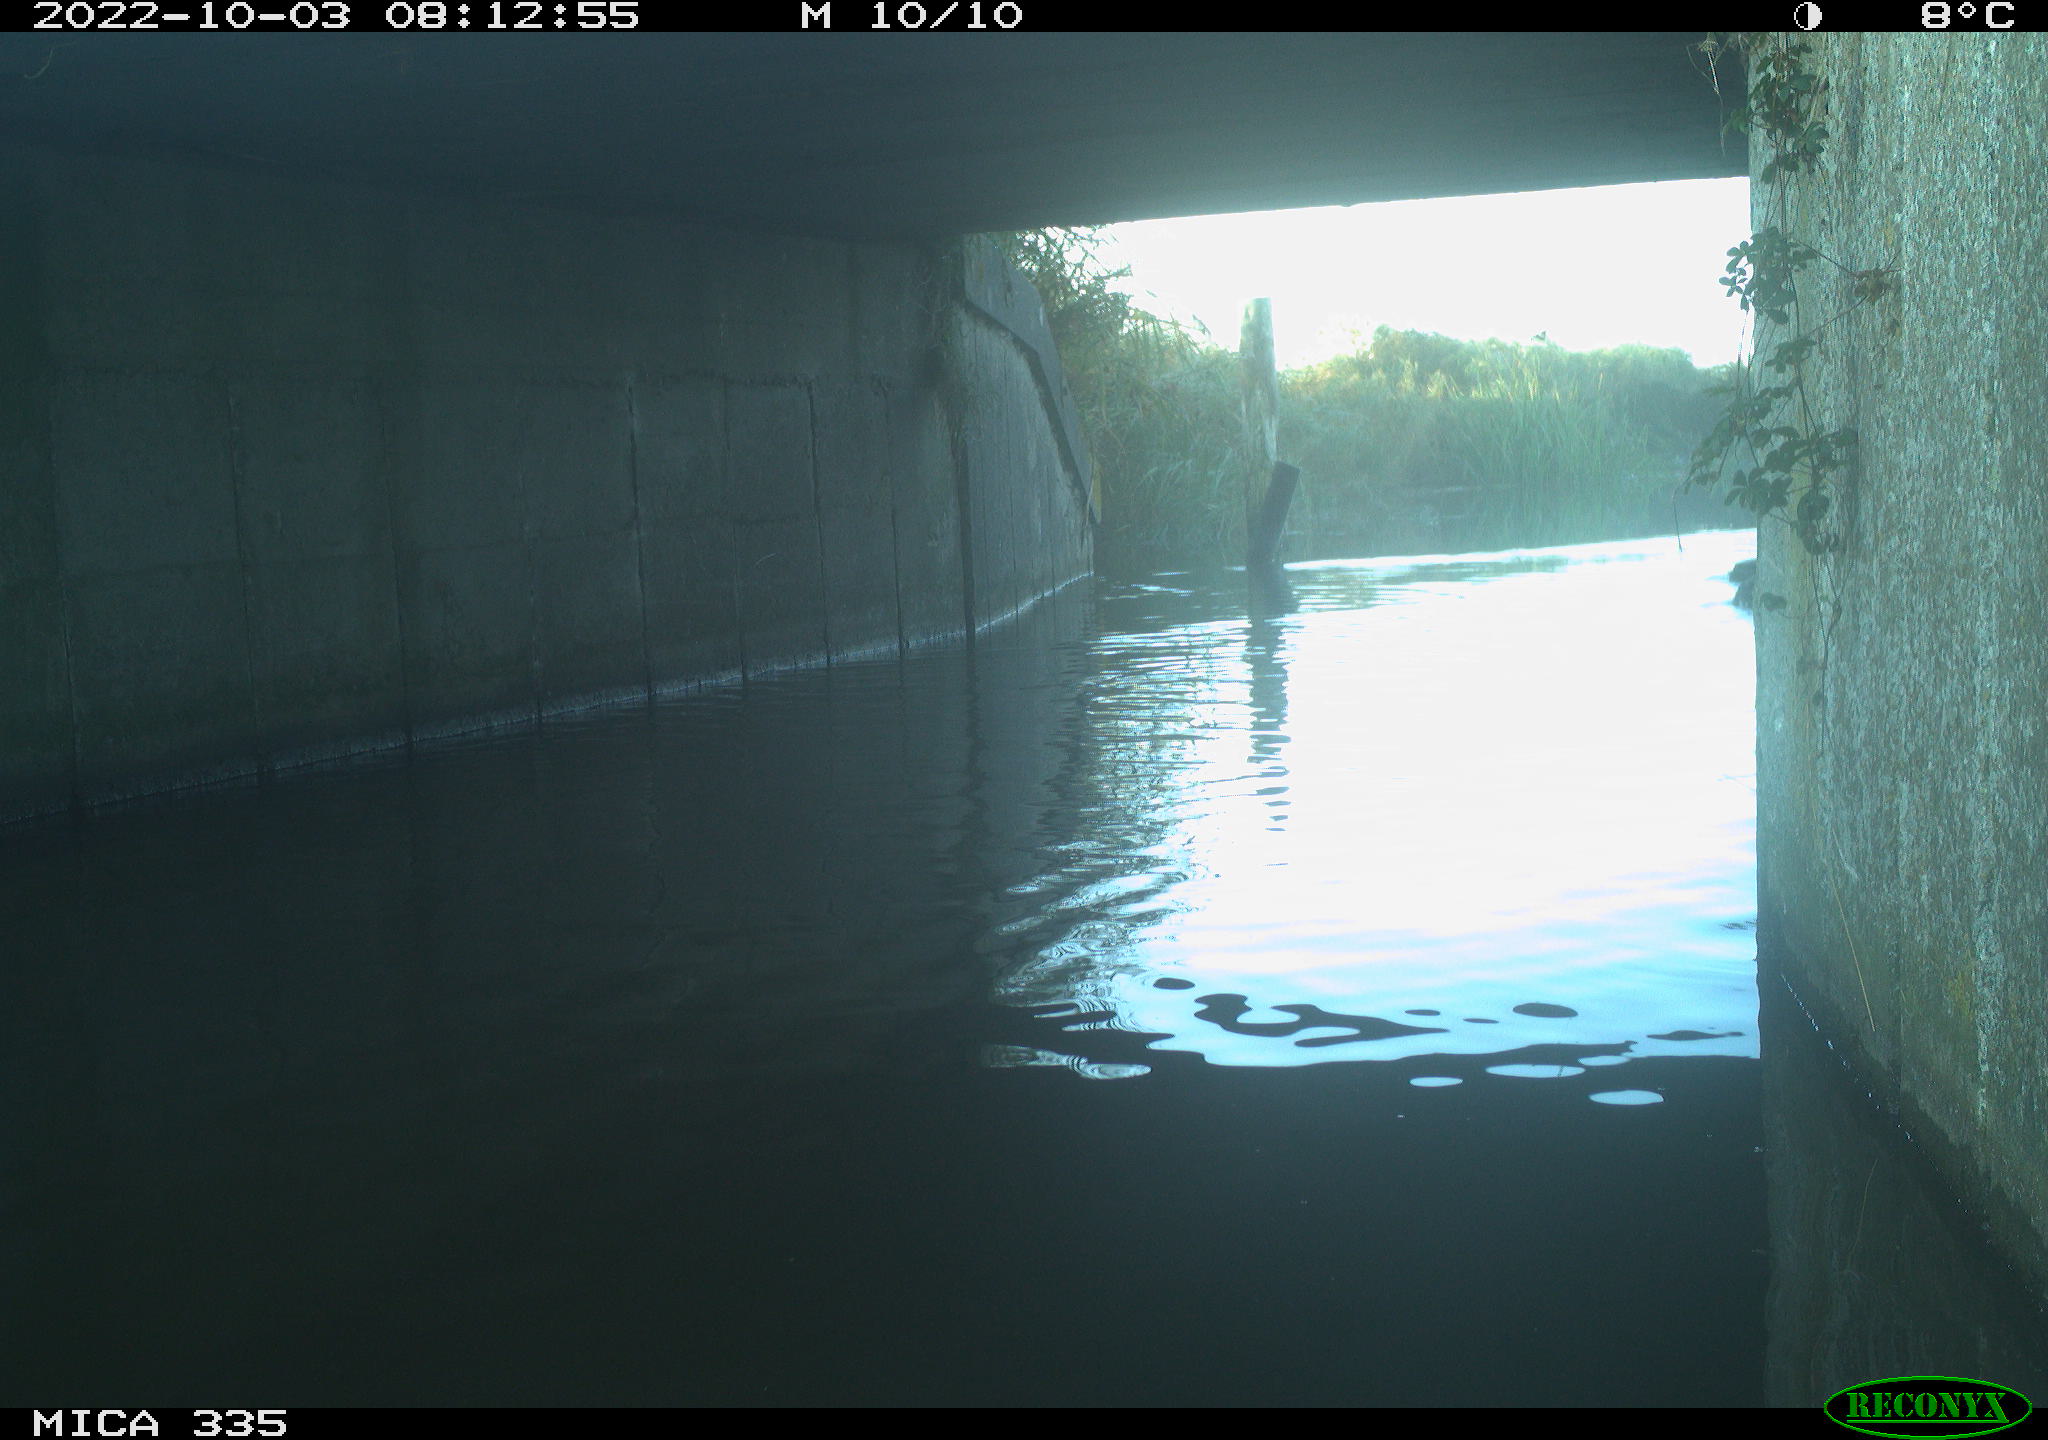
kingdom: Animalia
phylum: Chordata
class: Aves
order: Anseriformes
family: Anatidae
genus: Anas
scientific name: Anas platyrhynchos
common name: Mallard
